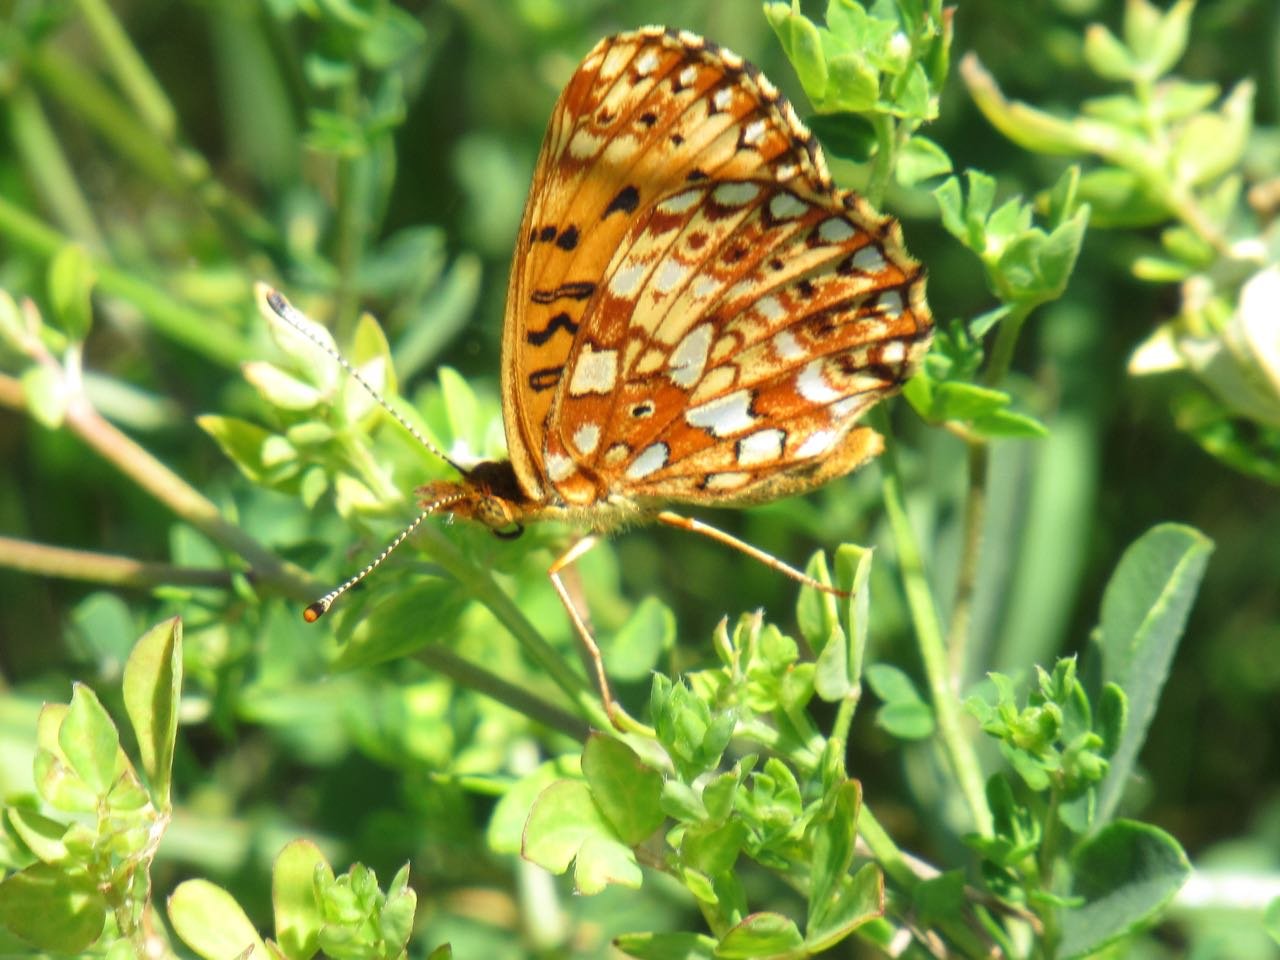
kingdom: Animalia
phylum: Arthropoda
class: Insecta
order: Lepidoptera
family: Nymphalidae
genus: Boloria
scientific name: Boloria selene
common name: Silver-bordered Fritillary
